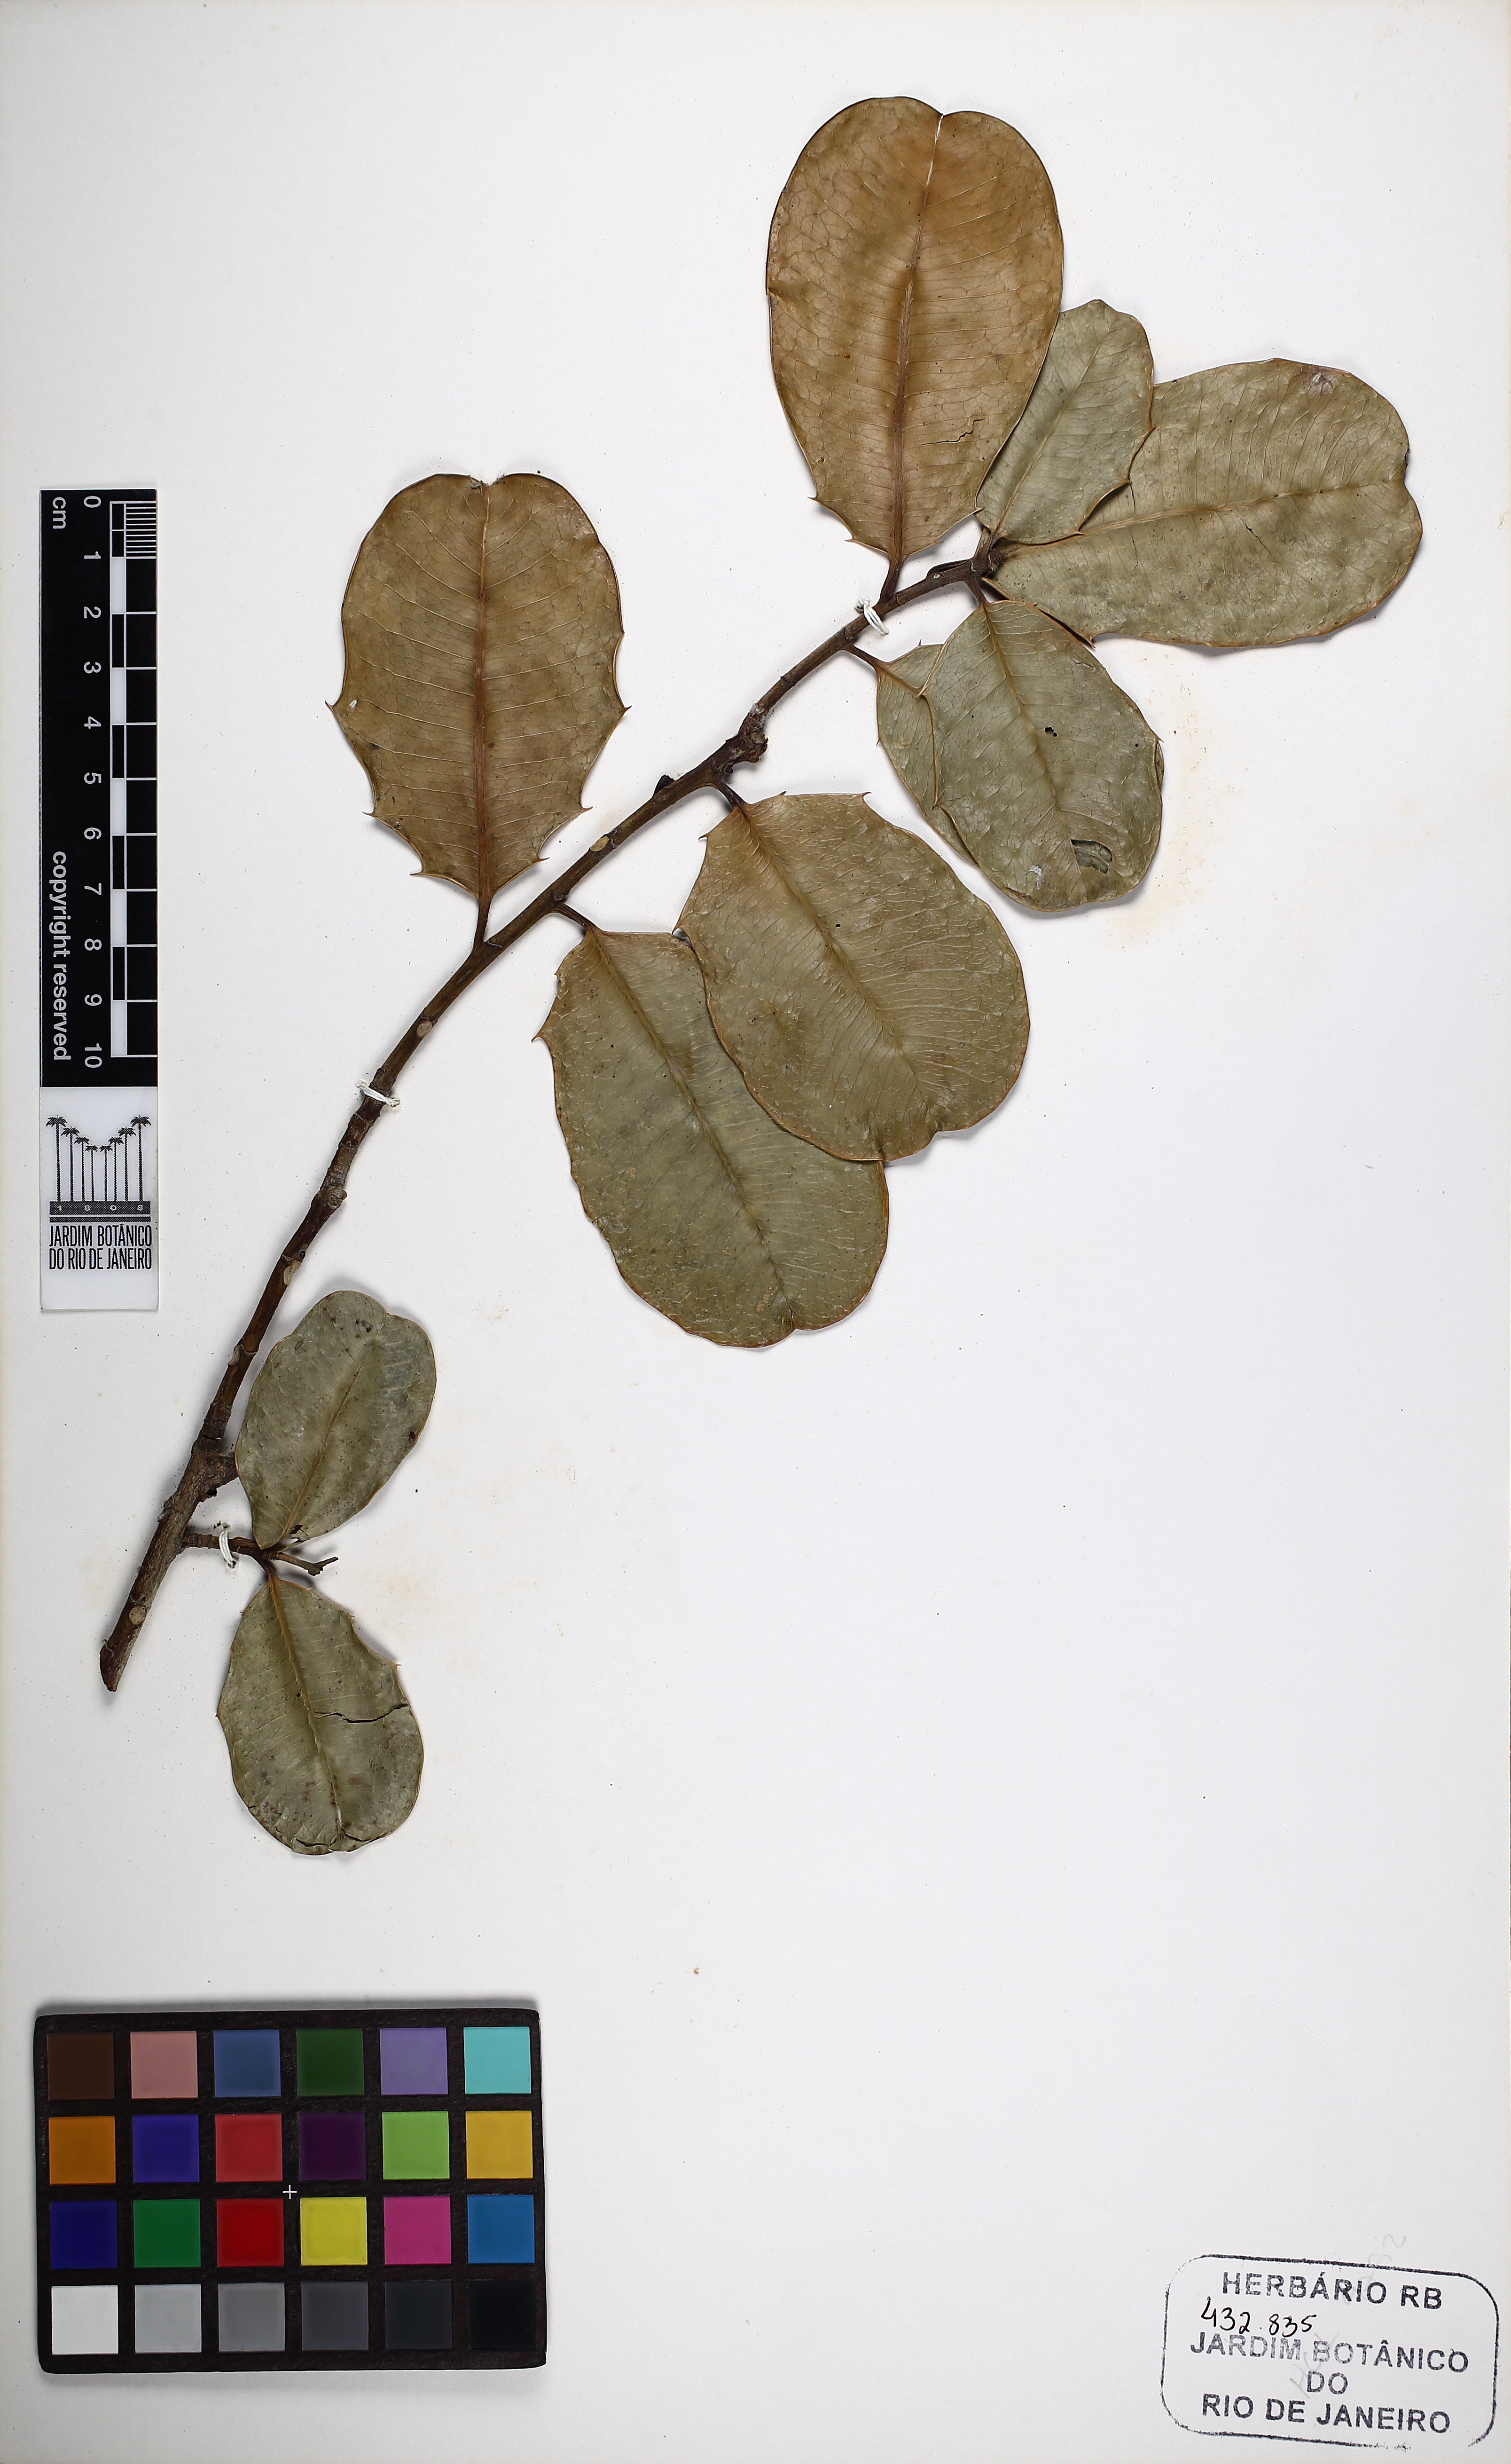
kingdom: Plantae
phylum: Tracheophyta
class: Magnoliopsida
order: Malpighiales
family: Euphorbiaceae
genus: Pachystroma
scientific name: Pachystroma longifolium
